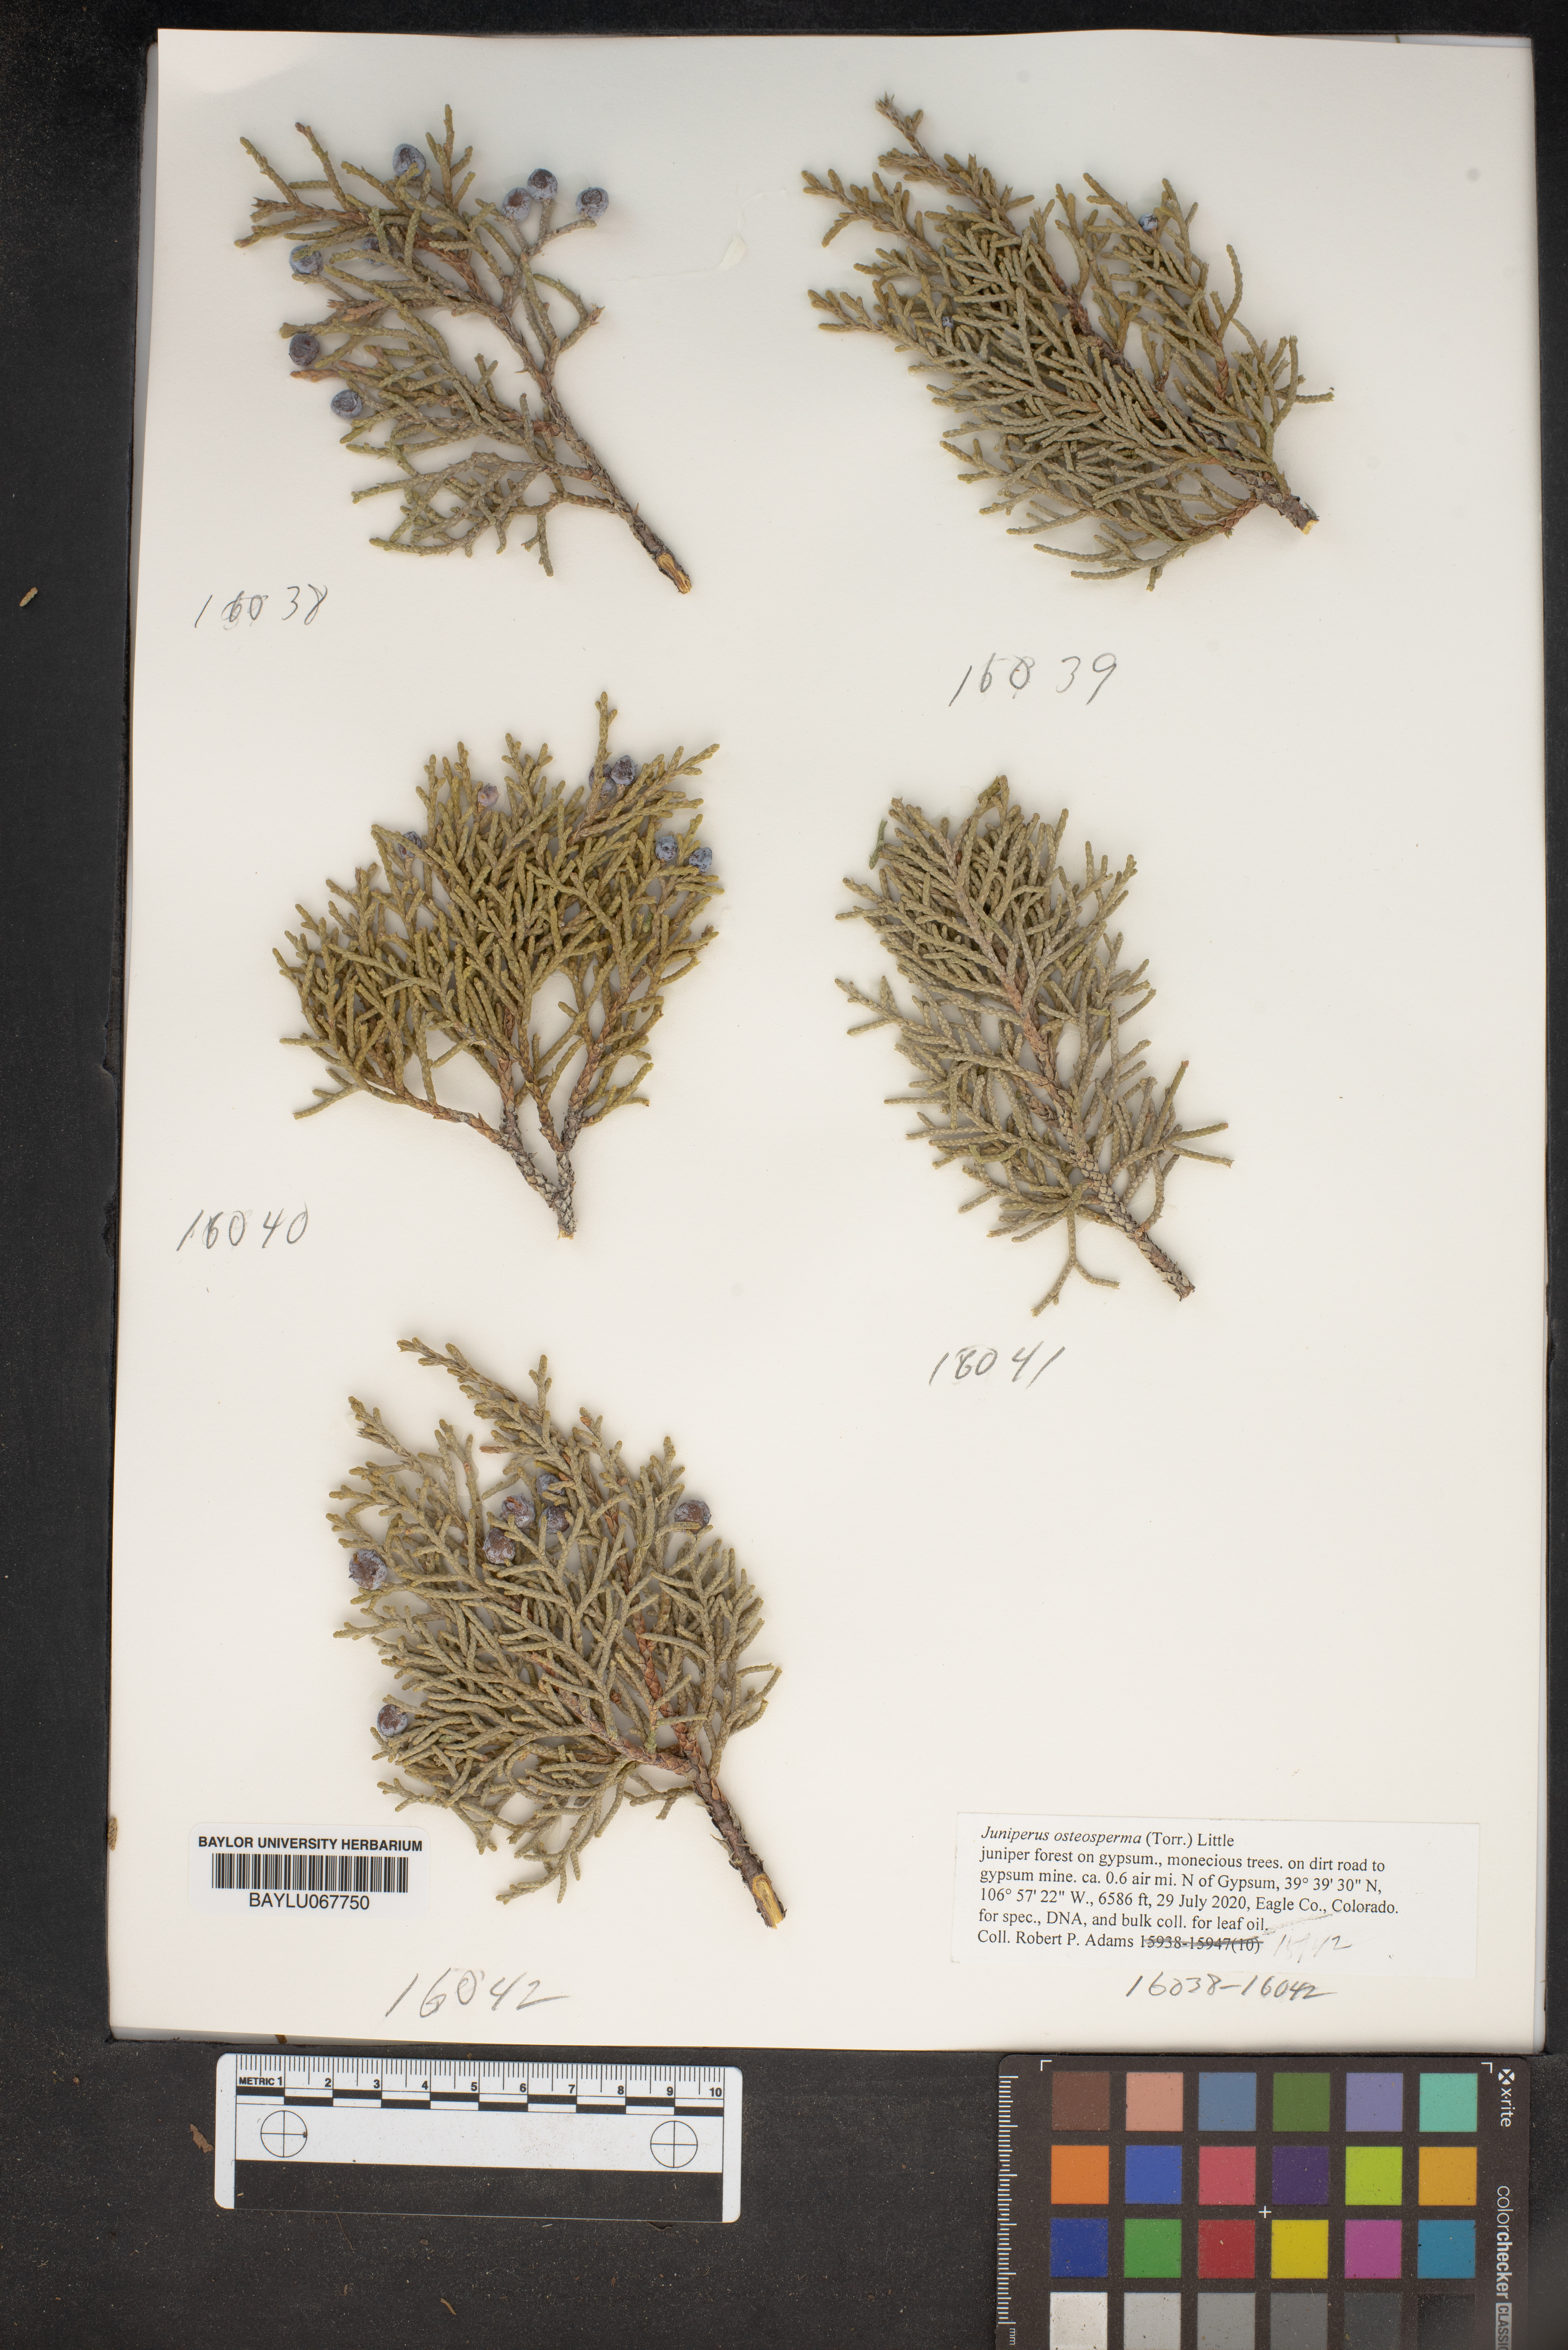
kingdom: Plantae
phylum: Tracheophyta
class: Pinopsida
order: Pinales
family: Cupressaceae
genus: Juniperus
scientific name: Juniperus osteosperma
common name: Utah juniper
